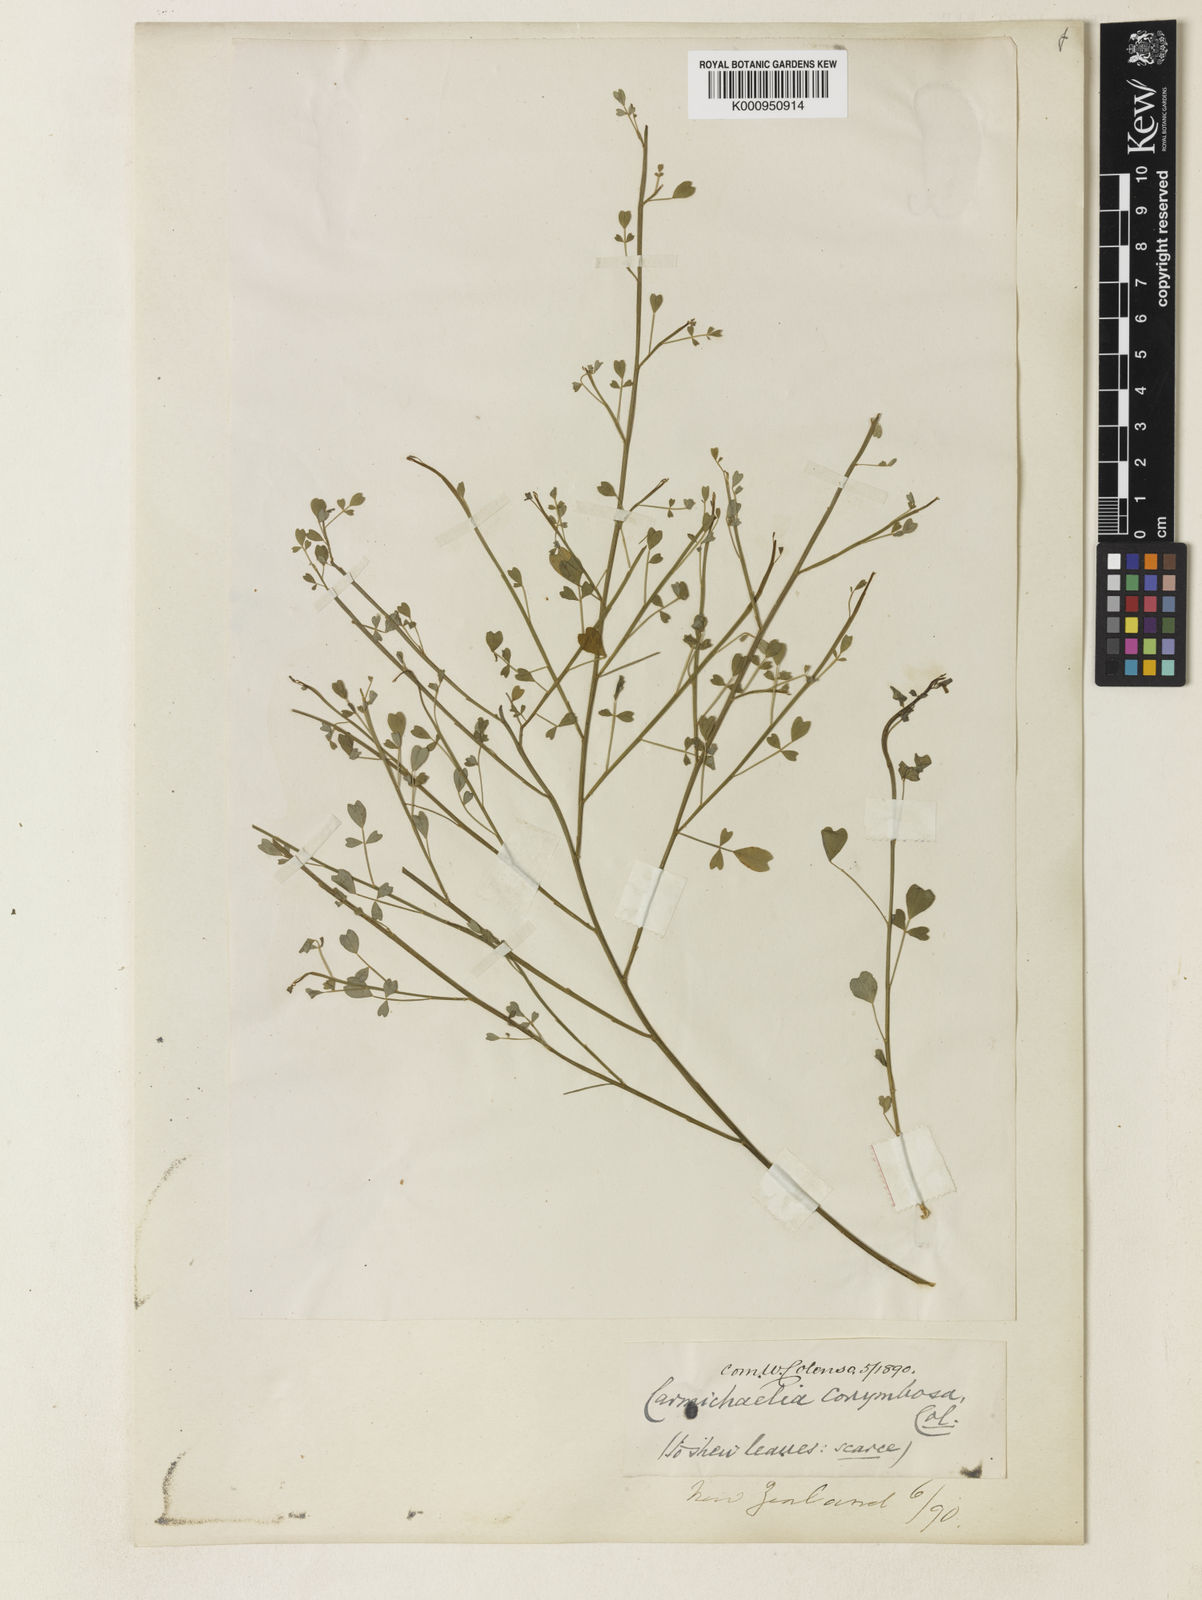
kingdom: Plantae
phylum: Tracheophyta
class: Magnoliopsida
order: Fabales
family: Fabaceae
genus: Carmichaelia
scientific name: Carmichaelia australis
